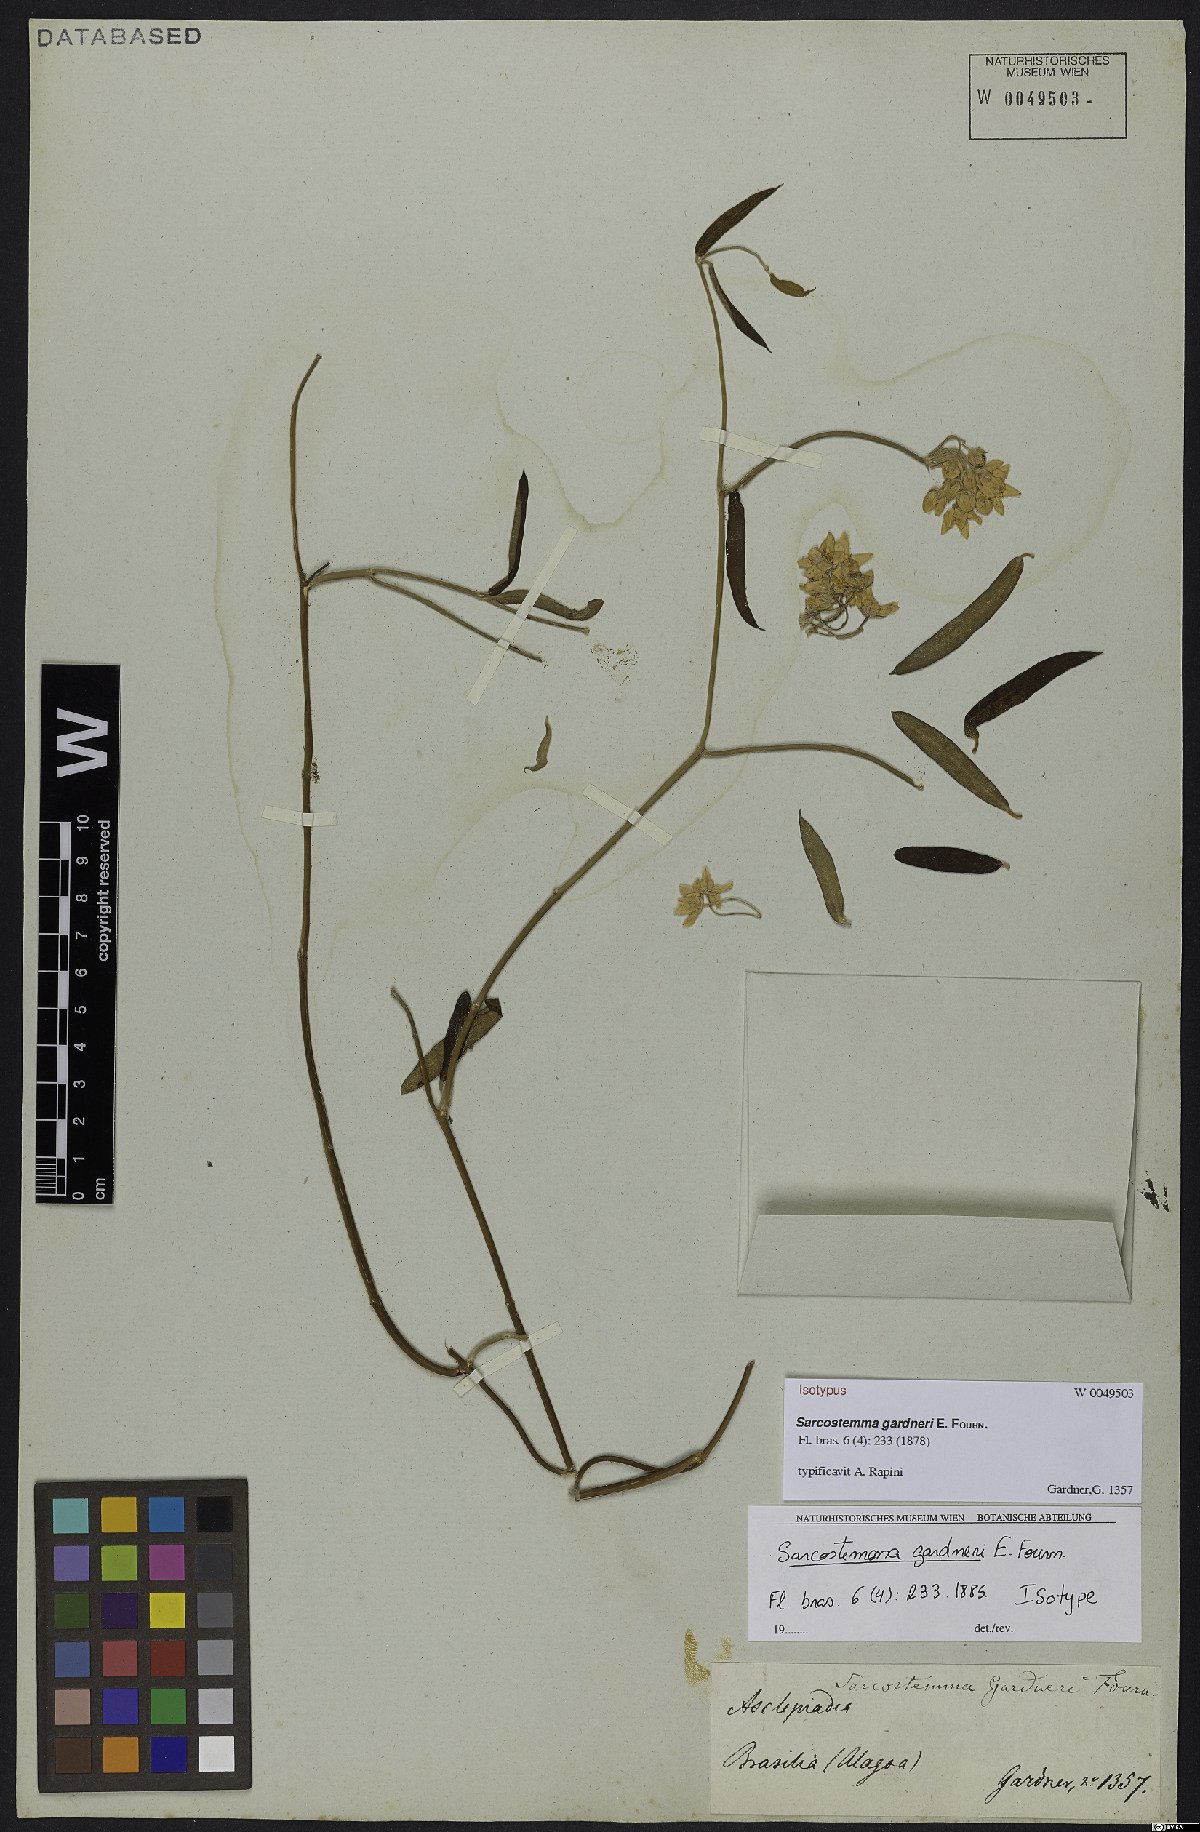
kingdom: Plantae
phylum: Tracheophyta
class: Magnoliopsida
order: Gentianales
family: Apocynaceae
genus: Funastrum
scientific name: Funastrum clausum
